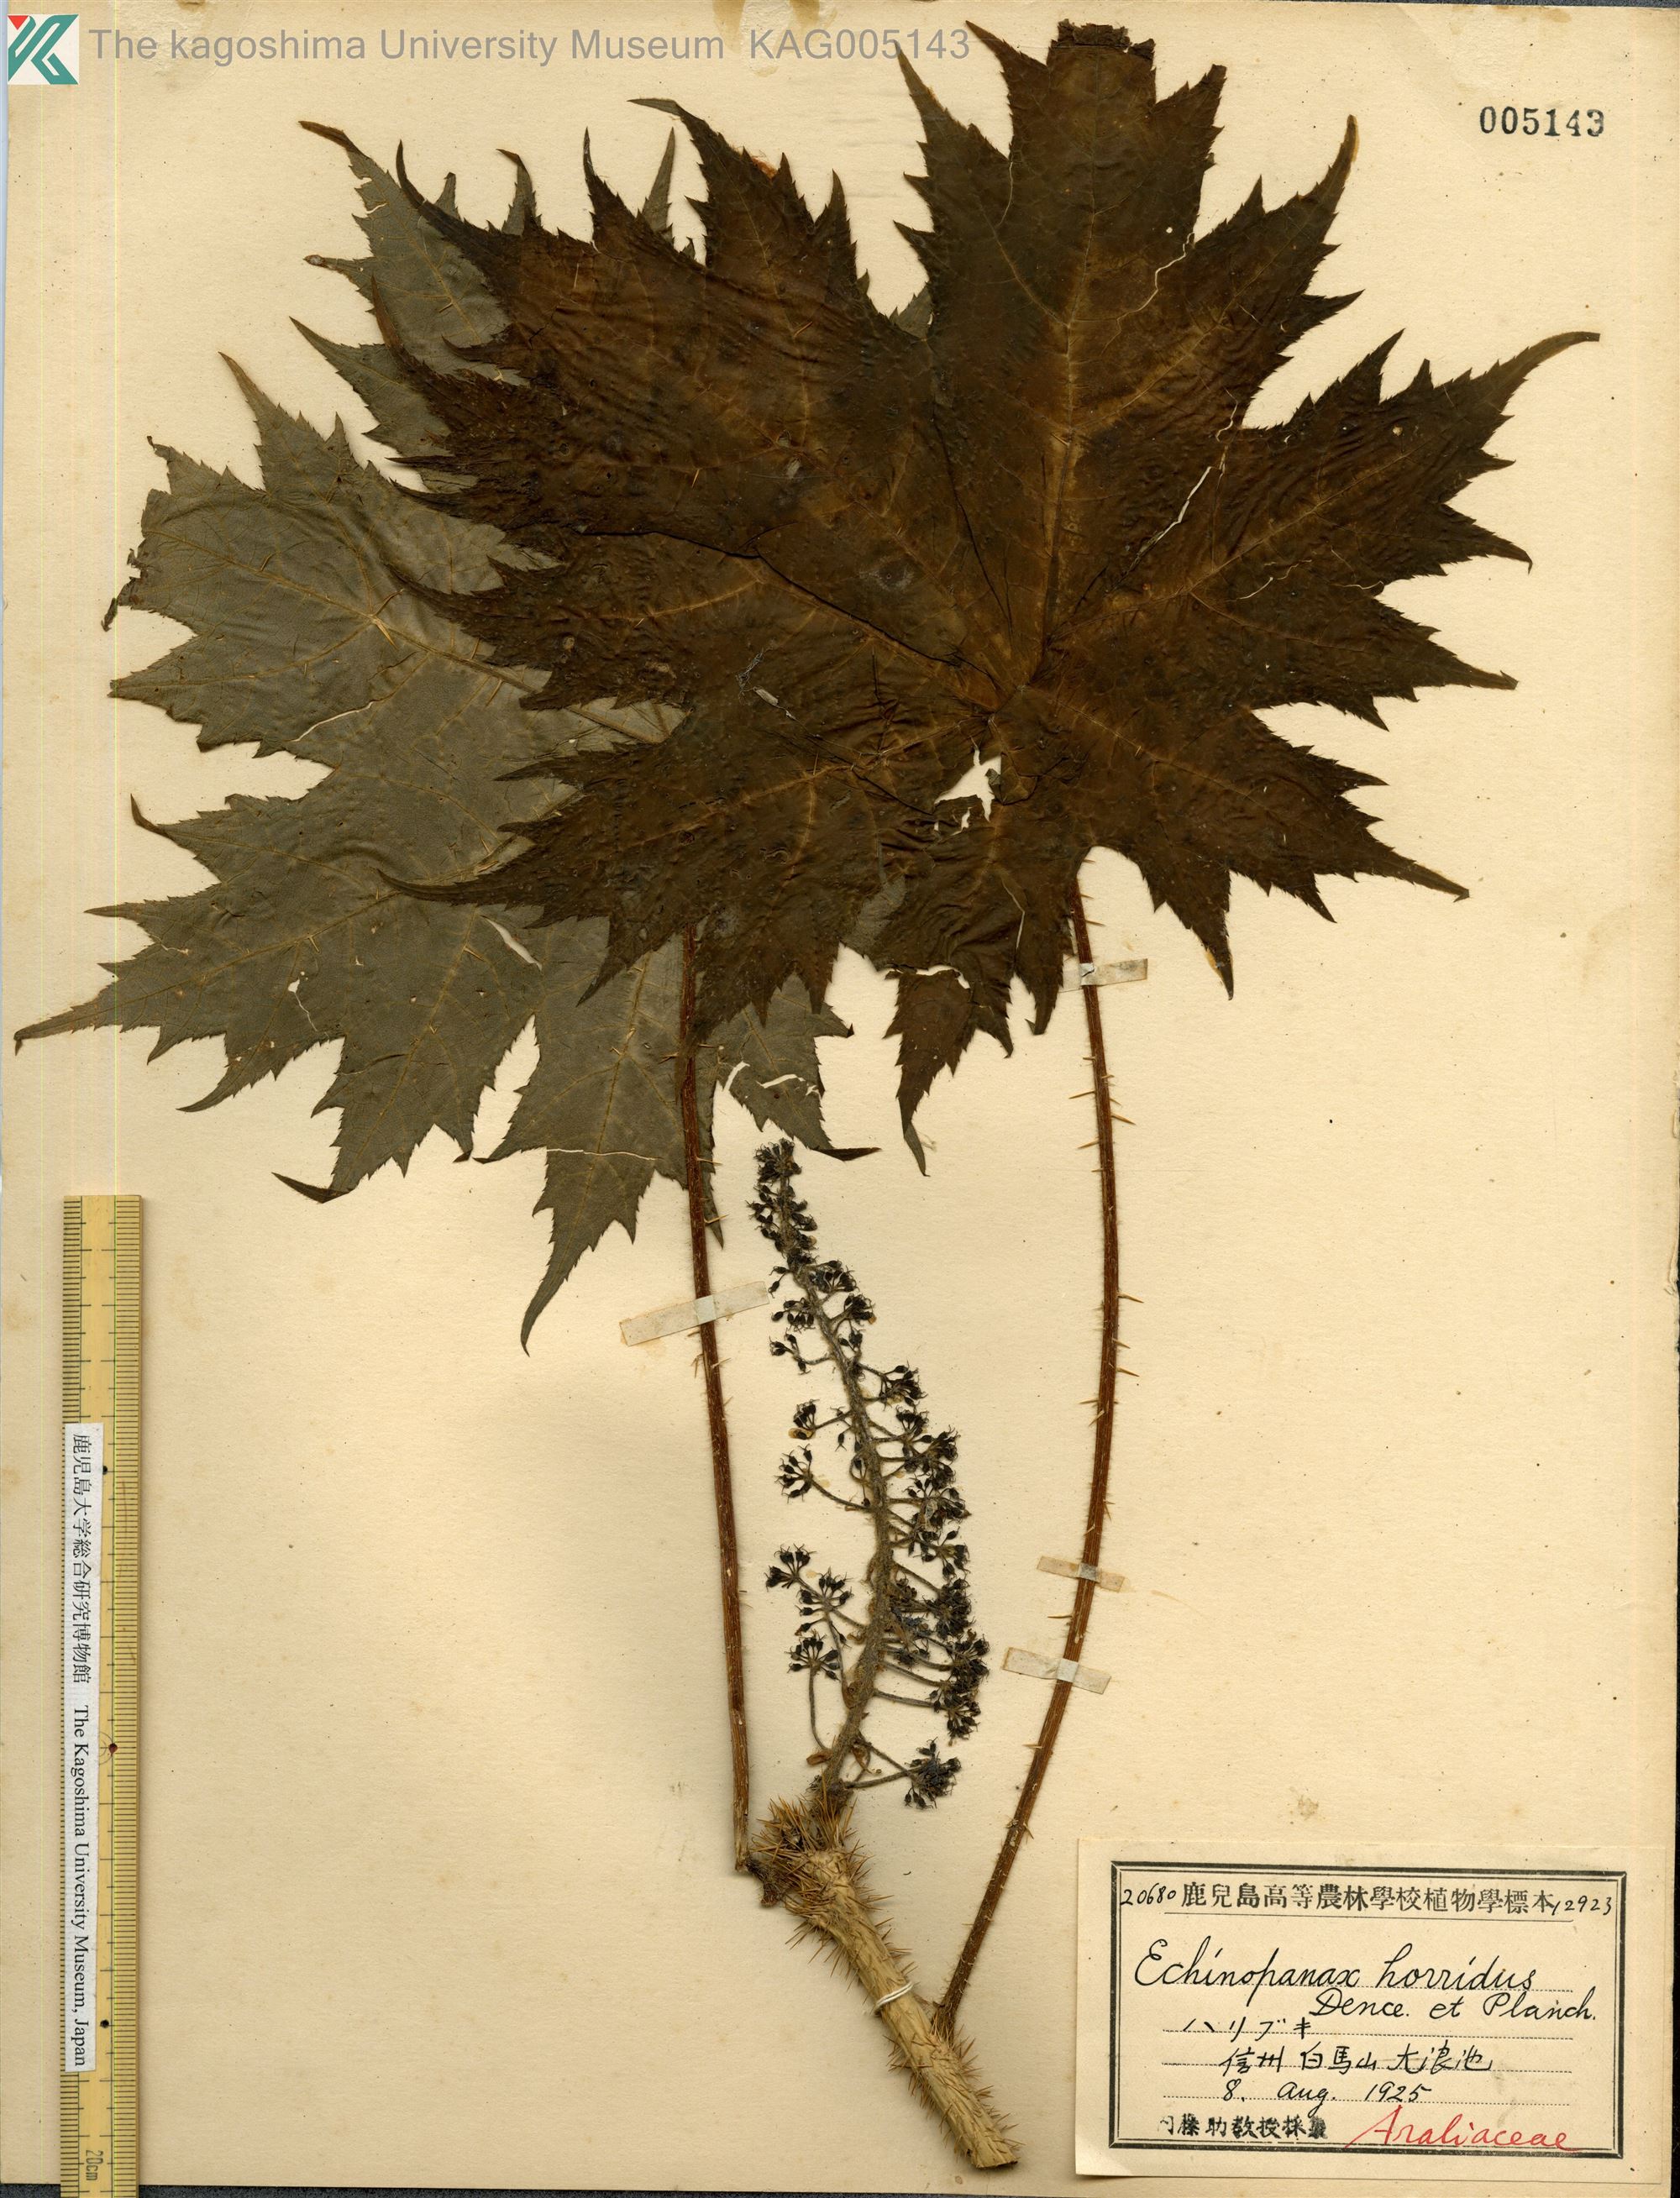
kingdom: Plantae
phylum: Tracheophyta
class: Magnoliopsida
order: Apiales
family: Araliaceae
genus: Oplopanax
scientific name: Oplopanax japonicus
